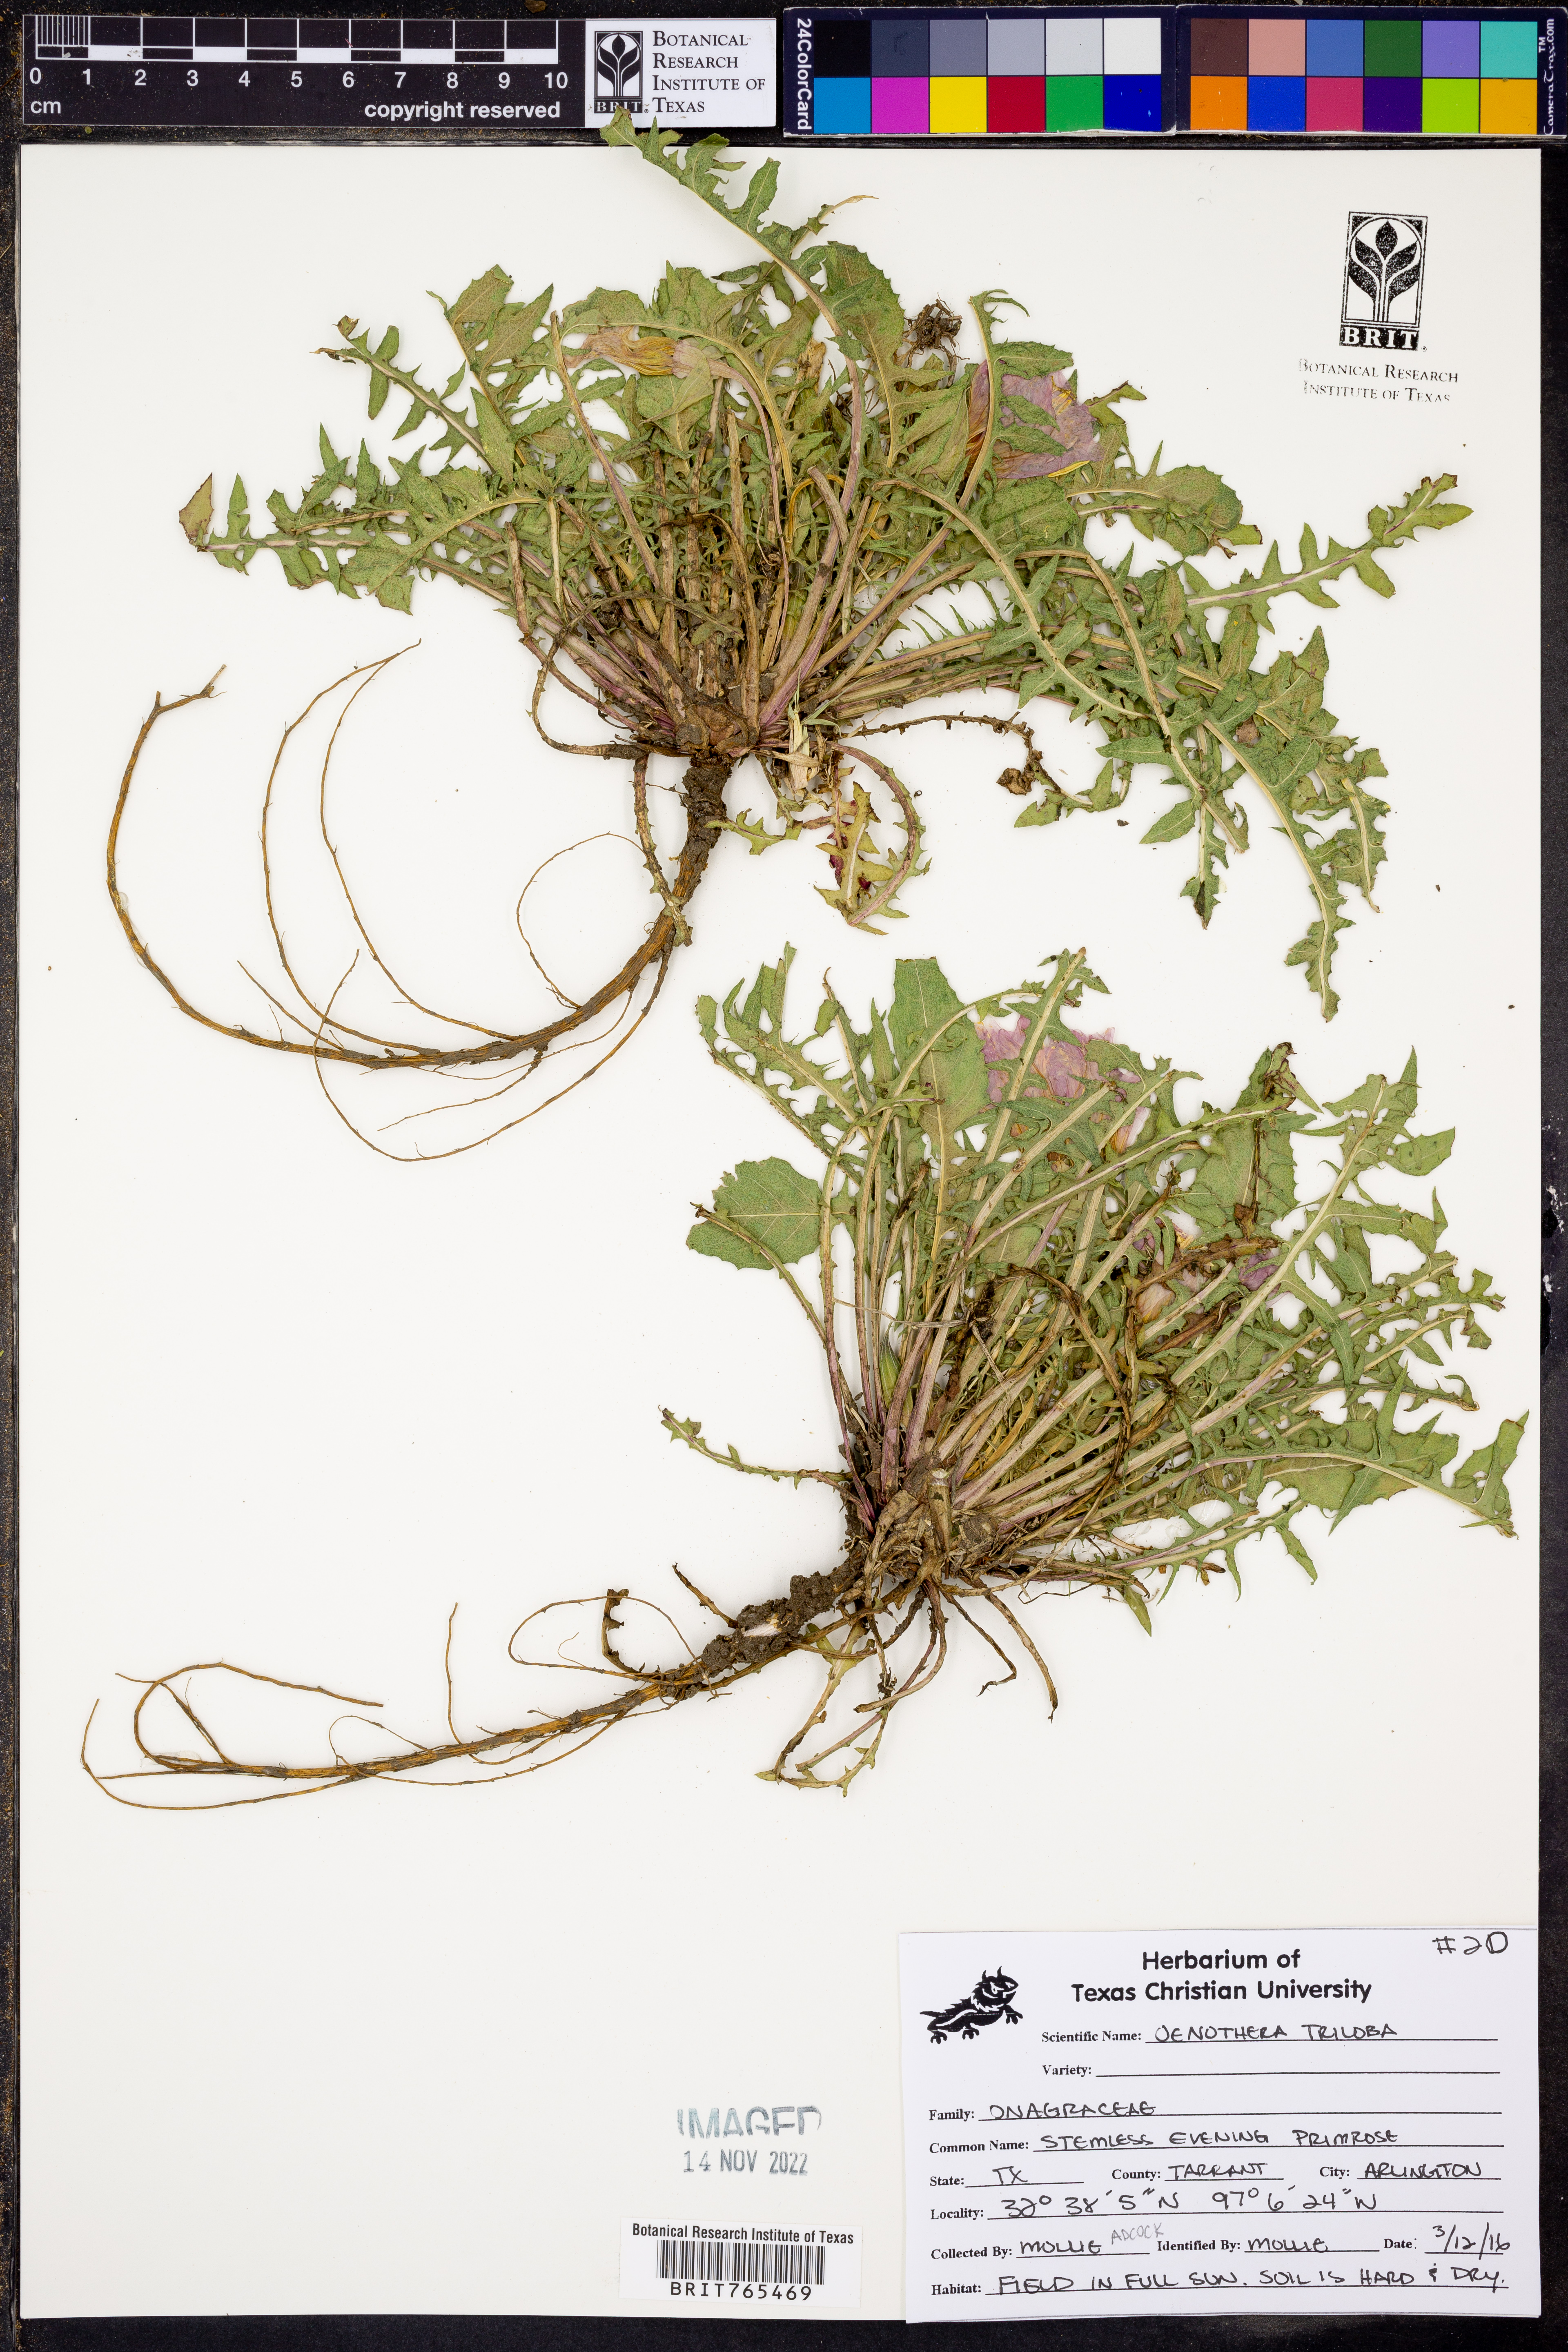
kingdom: Plantae
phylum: Tracheophyta
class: Magnoliopsida
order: Myrtales
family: Onagraceae
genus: Oenothera
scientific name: Oenothera triloba
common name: Sessile evening-primrose
